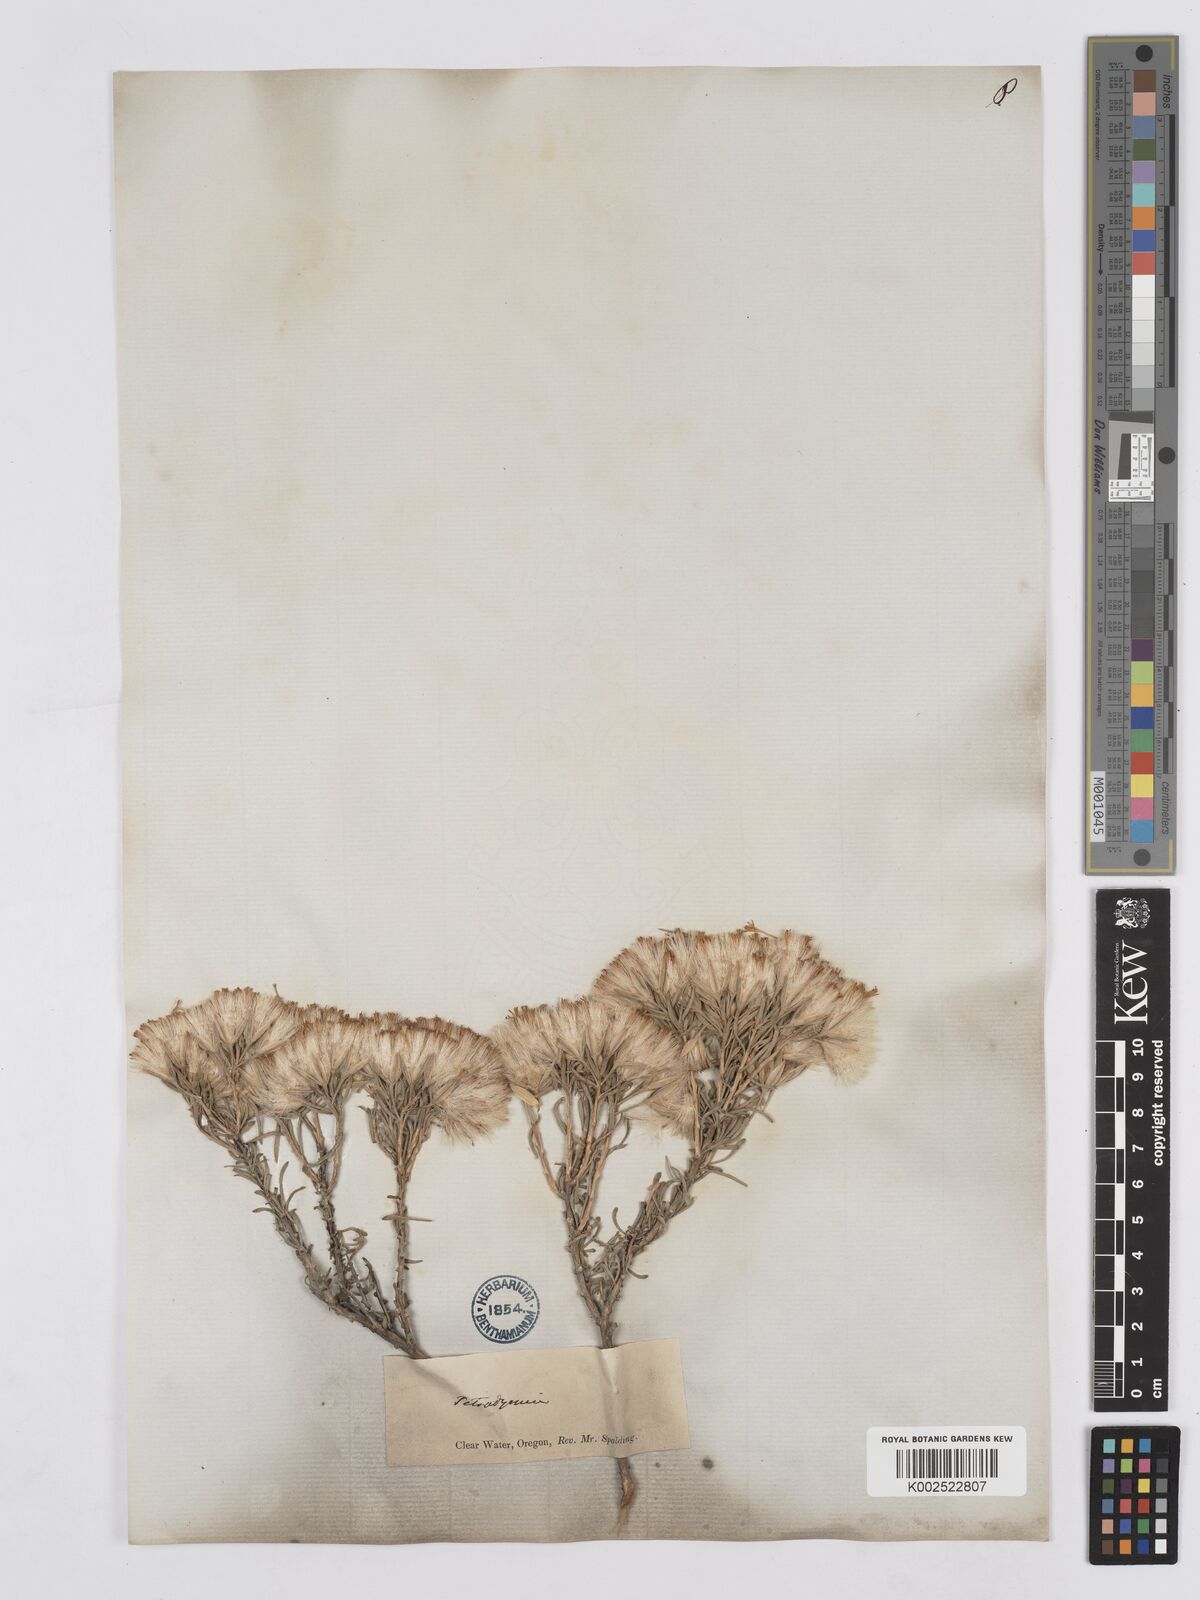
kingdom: Plantae
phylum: Tracheophyta
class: Magnoliopsida
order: Asterales
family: Asteraceae
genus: Tetradymia
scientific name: Tetradymia canescens
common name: Spineless horsebrush
